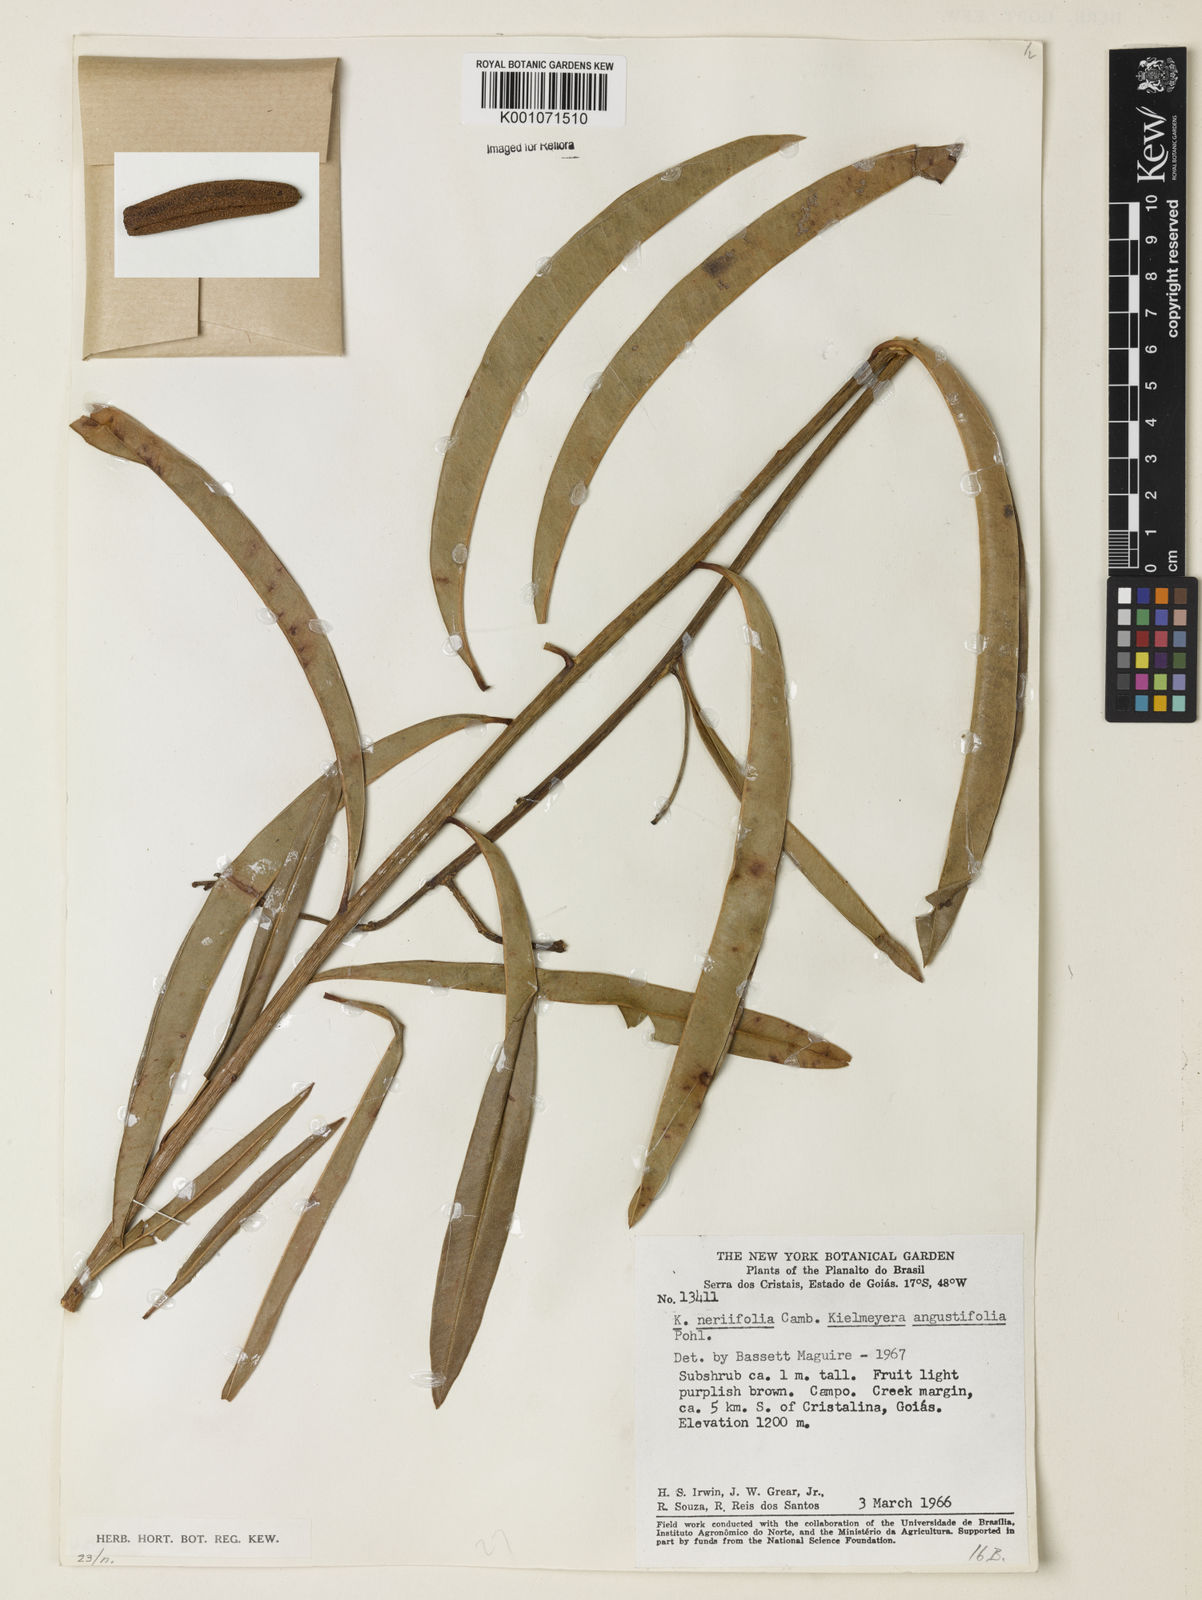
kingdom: Plantae
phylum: Tracheophyta
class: Magnoliopsida
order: Malpighiales
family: Calophyllaceae
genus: Kielmeyera
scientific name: Kielmeyera abdita
